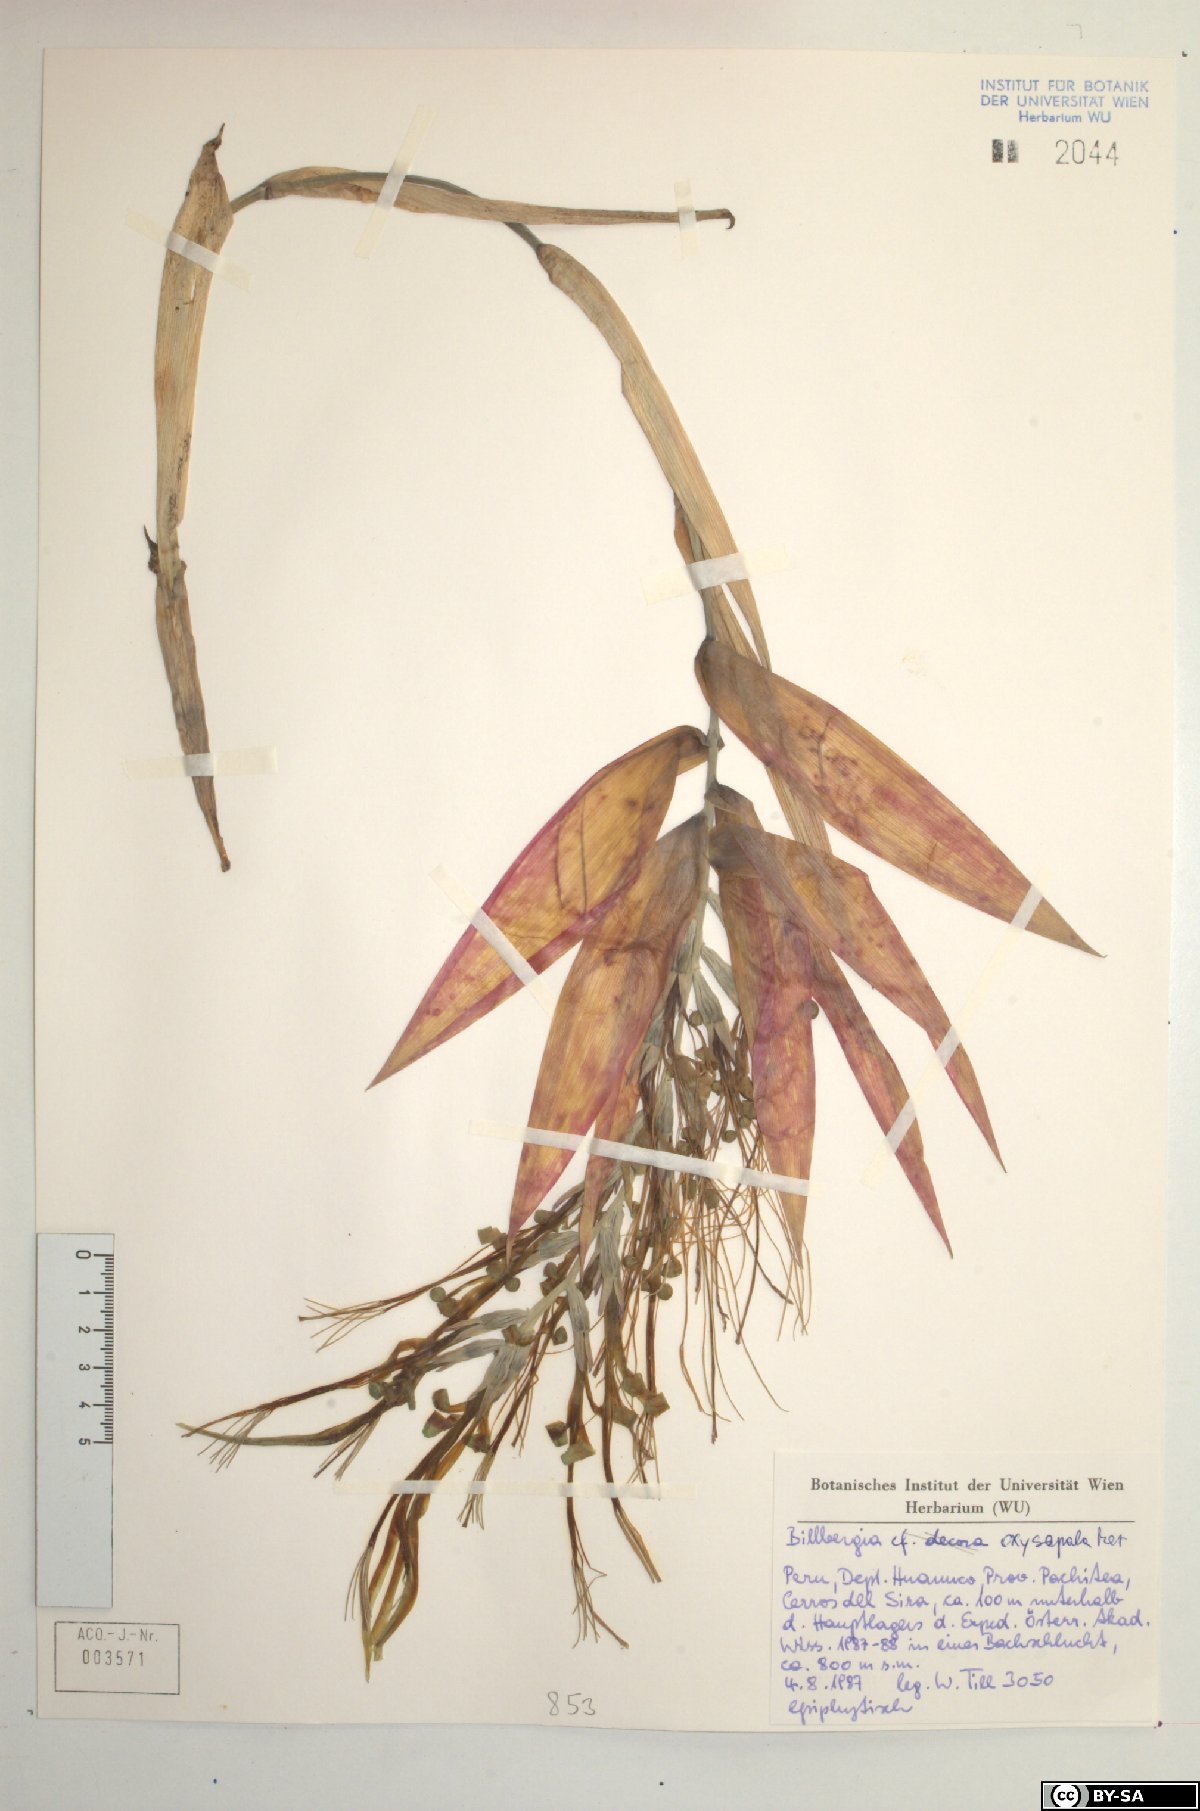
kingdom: Plantae
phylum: Tracheophyta
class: Liliopsida
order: Poales
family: Bromeliaceae
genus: Billbergia
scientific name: Billbergia oxysepala
